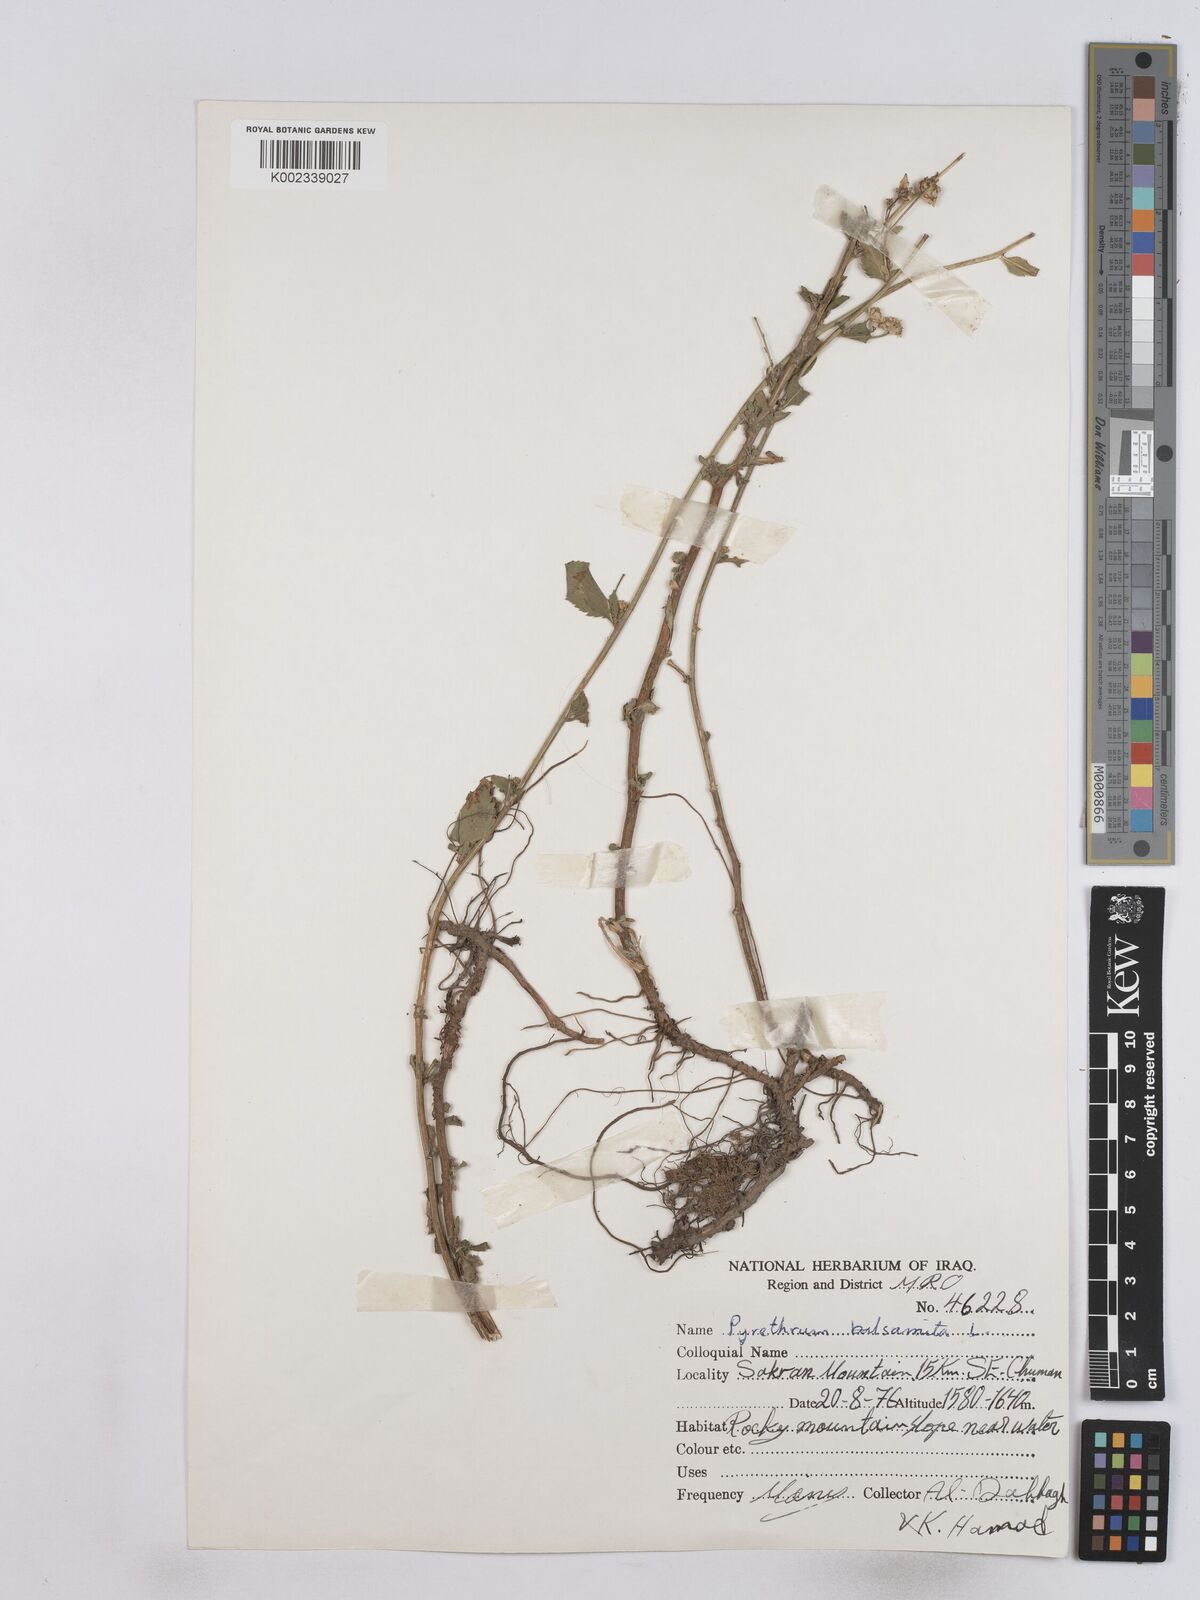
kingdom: Plantae
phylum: Tracheophyta
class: Magnoliopsida
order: Asterales
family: Asteraceae
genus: Tanacetum
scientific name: Tanacetum balsamitoides
